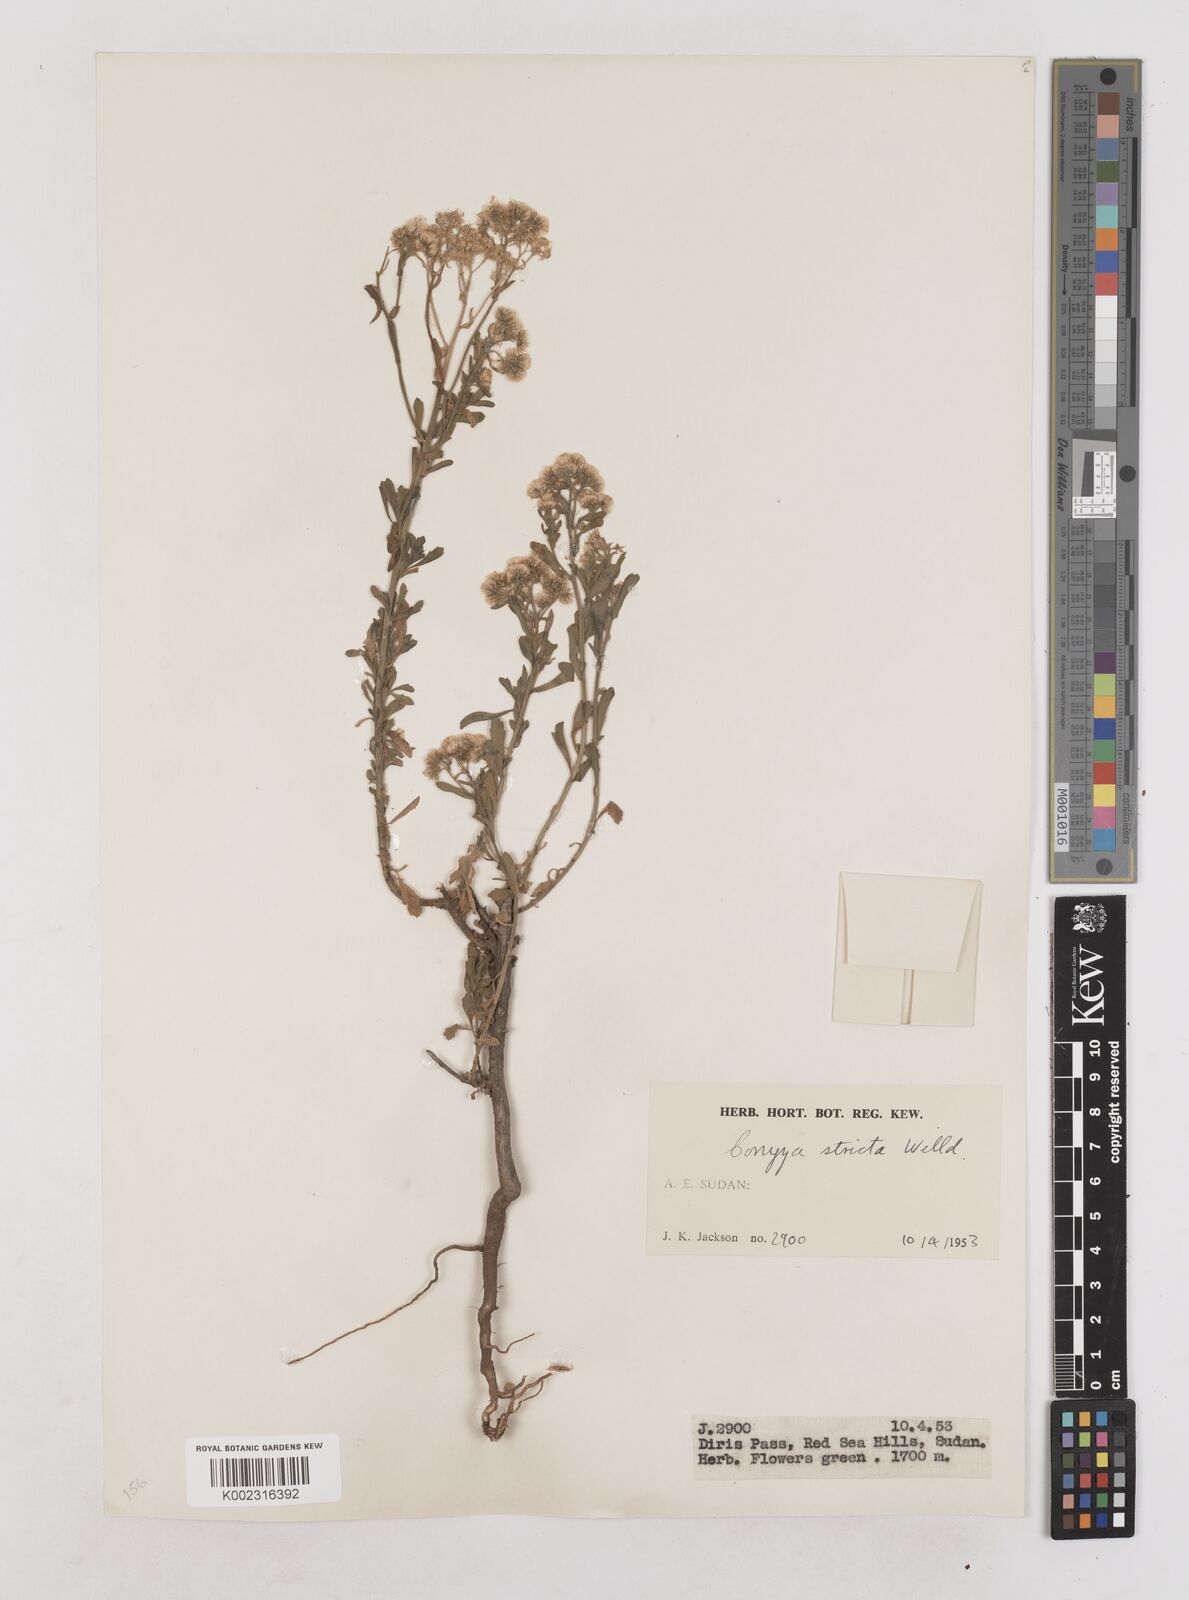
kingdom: Plantae
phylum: Tracheophyta
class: Magnoliopsida
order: Asterales
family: Asteraceae
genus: Nidorella
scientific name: Nidorella triloba
